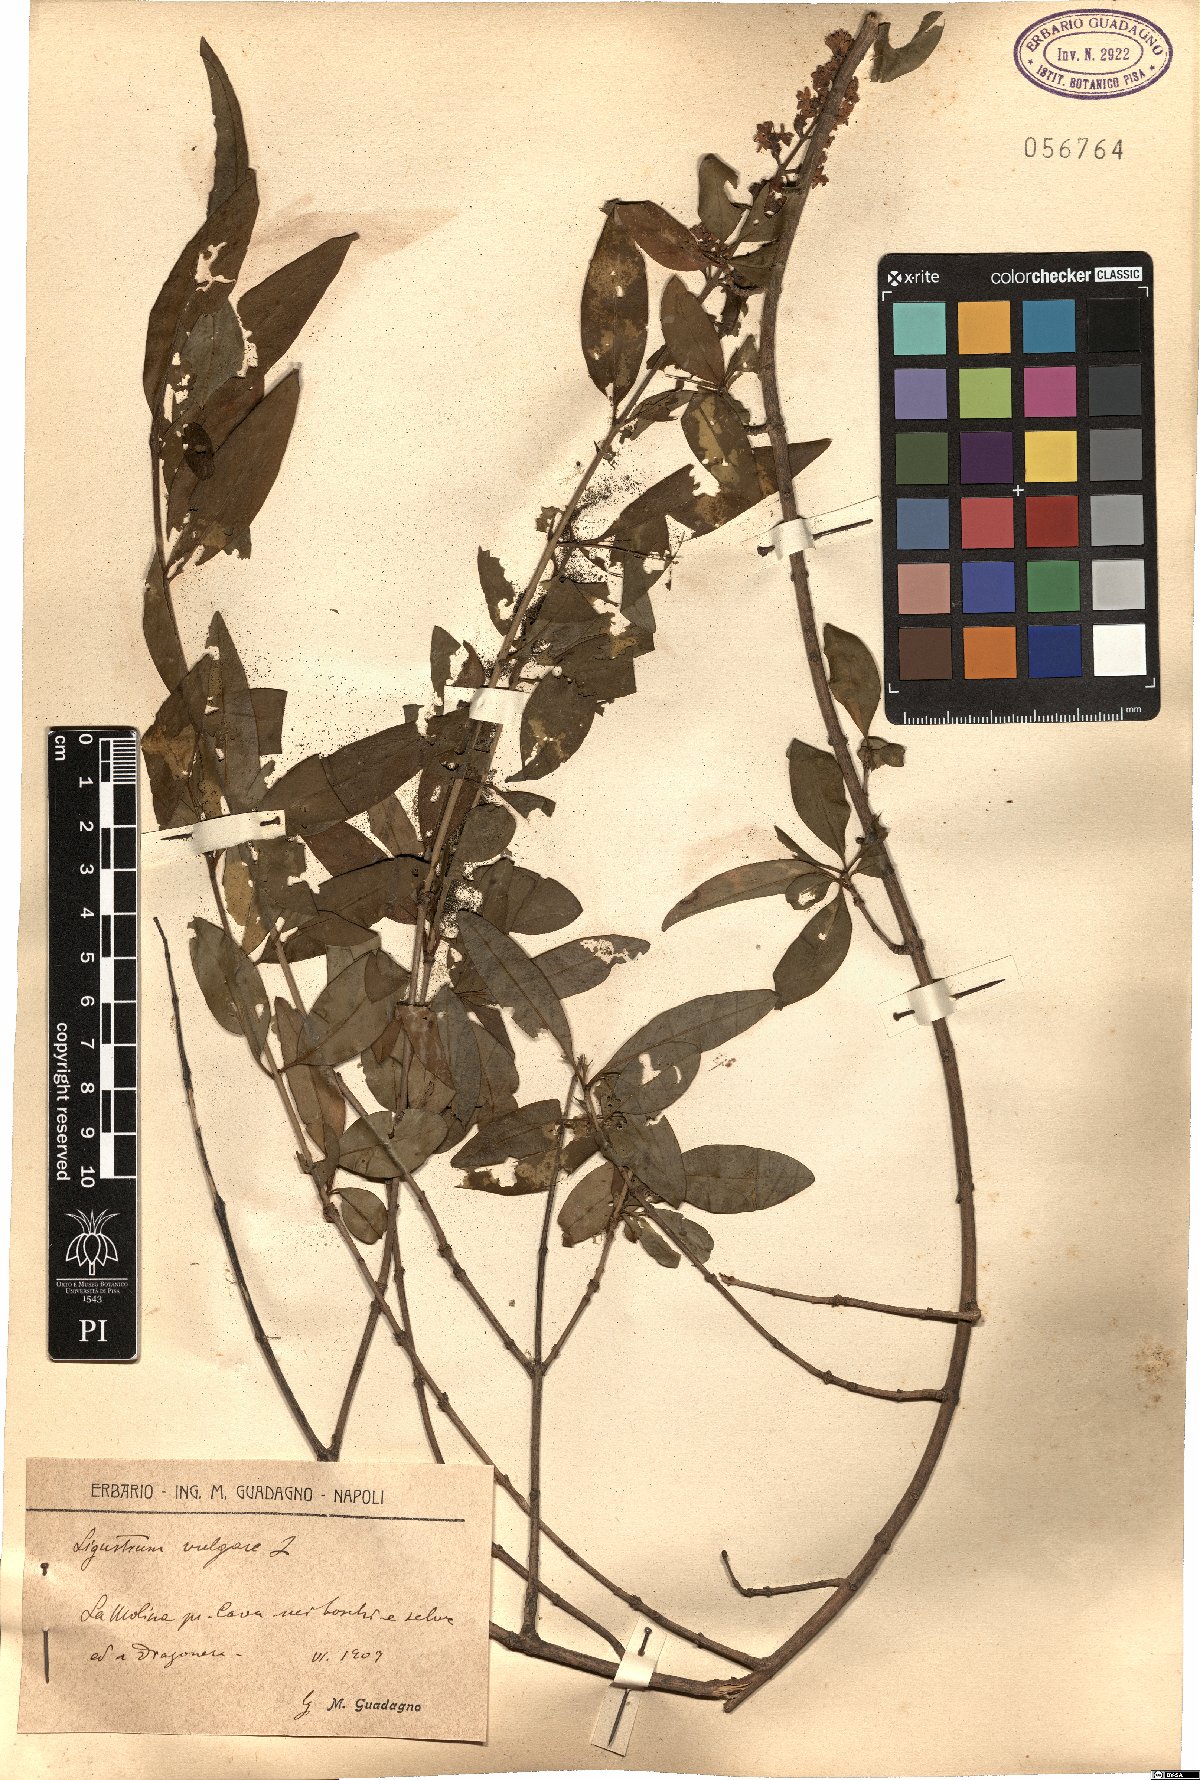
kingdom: Plantae
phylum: Tracheophyta
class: Magnoliopsida
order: Lamiales
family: Oleaceae
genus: Ligustrum
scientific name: Ligustrum vulgare
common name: Wild privet
